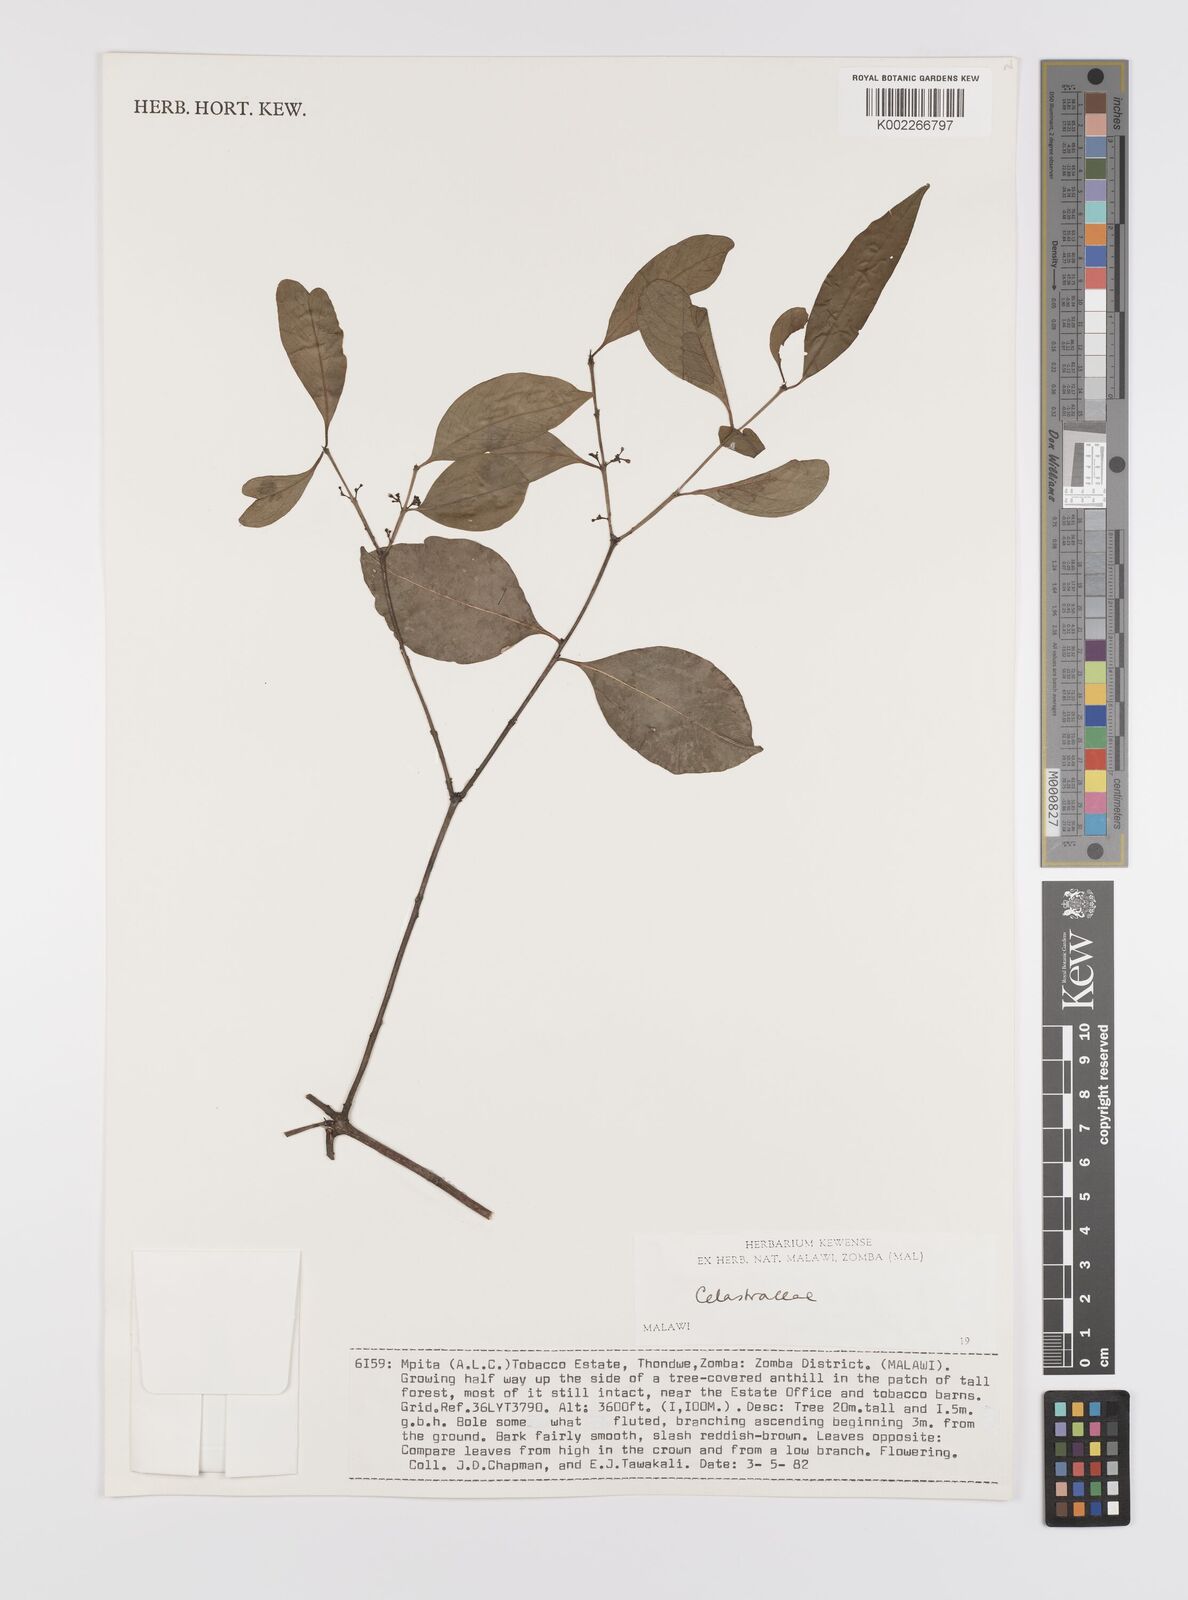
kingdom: Plantae
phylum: Tracheophyta
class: Magnoliopsida
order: Celastrales
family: Celastraceae
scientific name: Celastraceae
